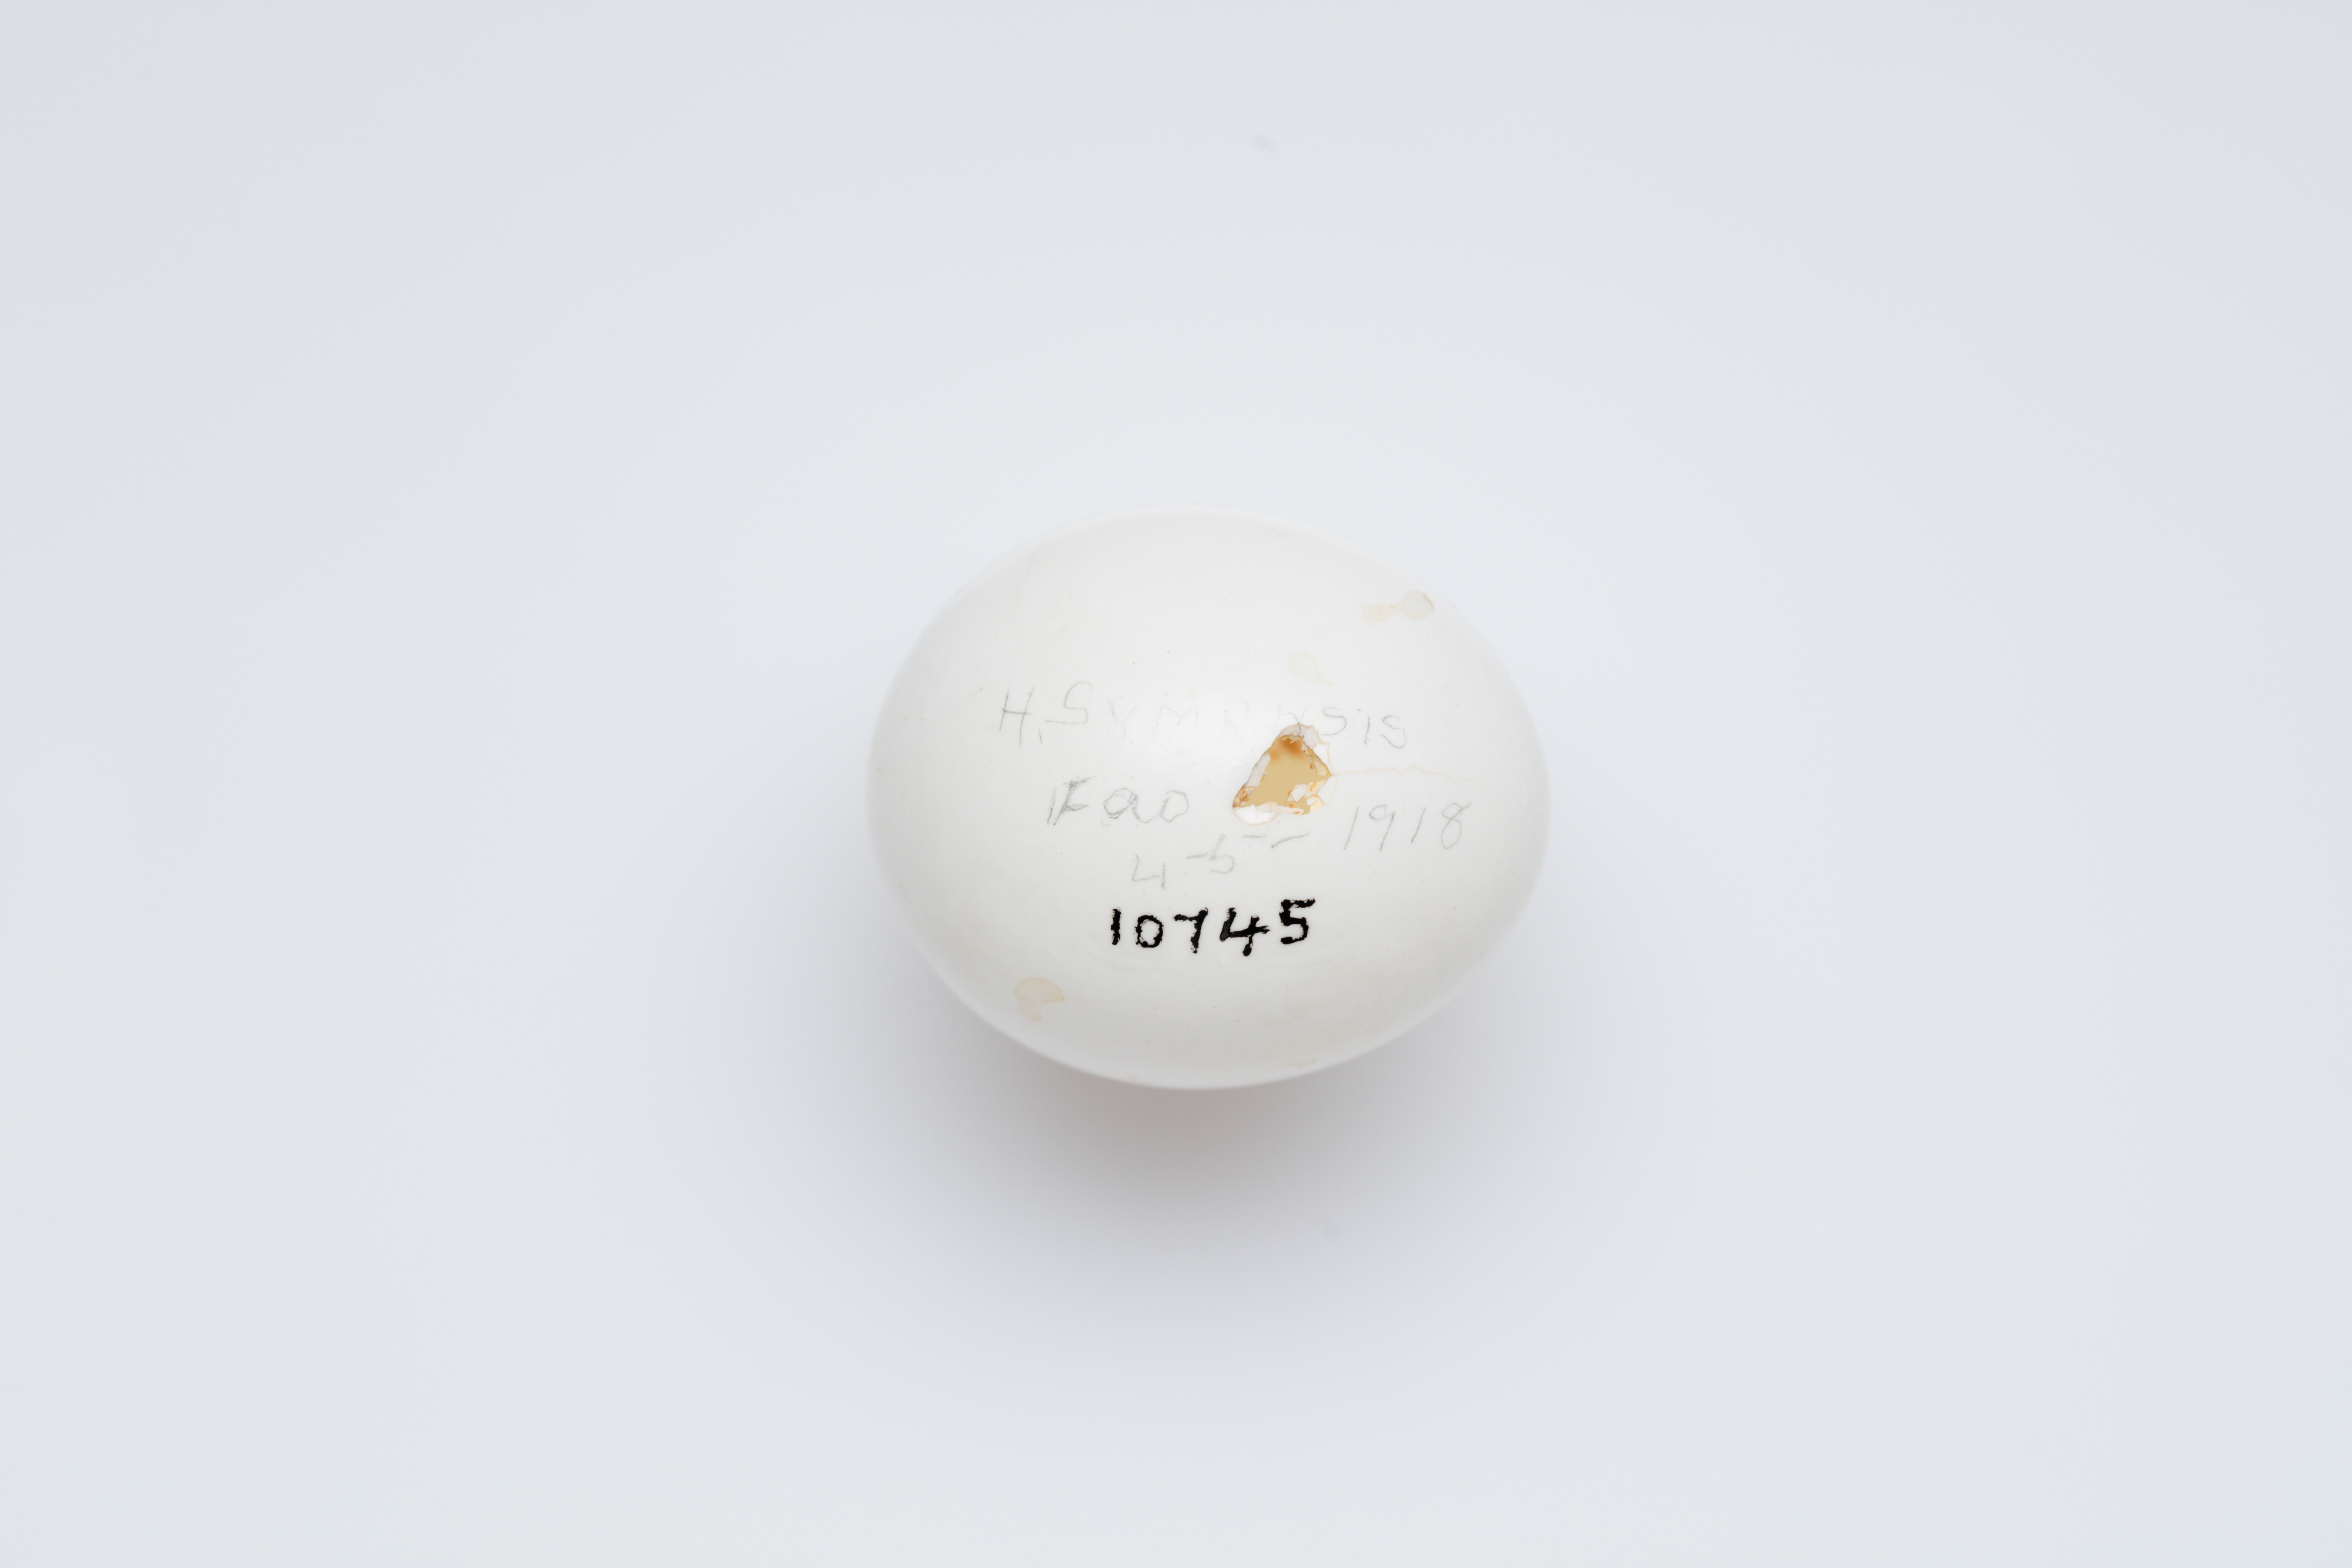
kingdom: Animalia
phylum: Chordata
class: Aves
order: Coraciiformes
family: Alcedinidae
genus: Halcyon
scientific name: Halcyon smyrnensis
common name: White-throated kingfisher
